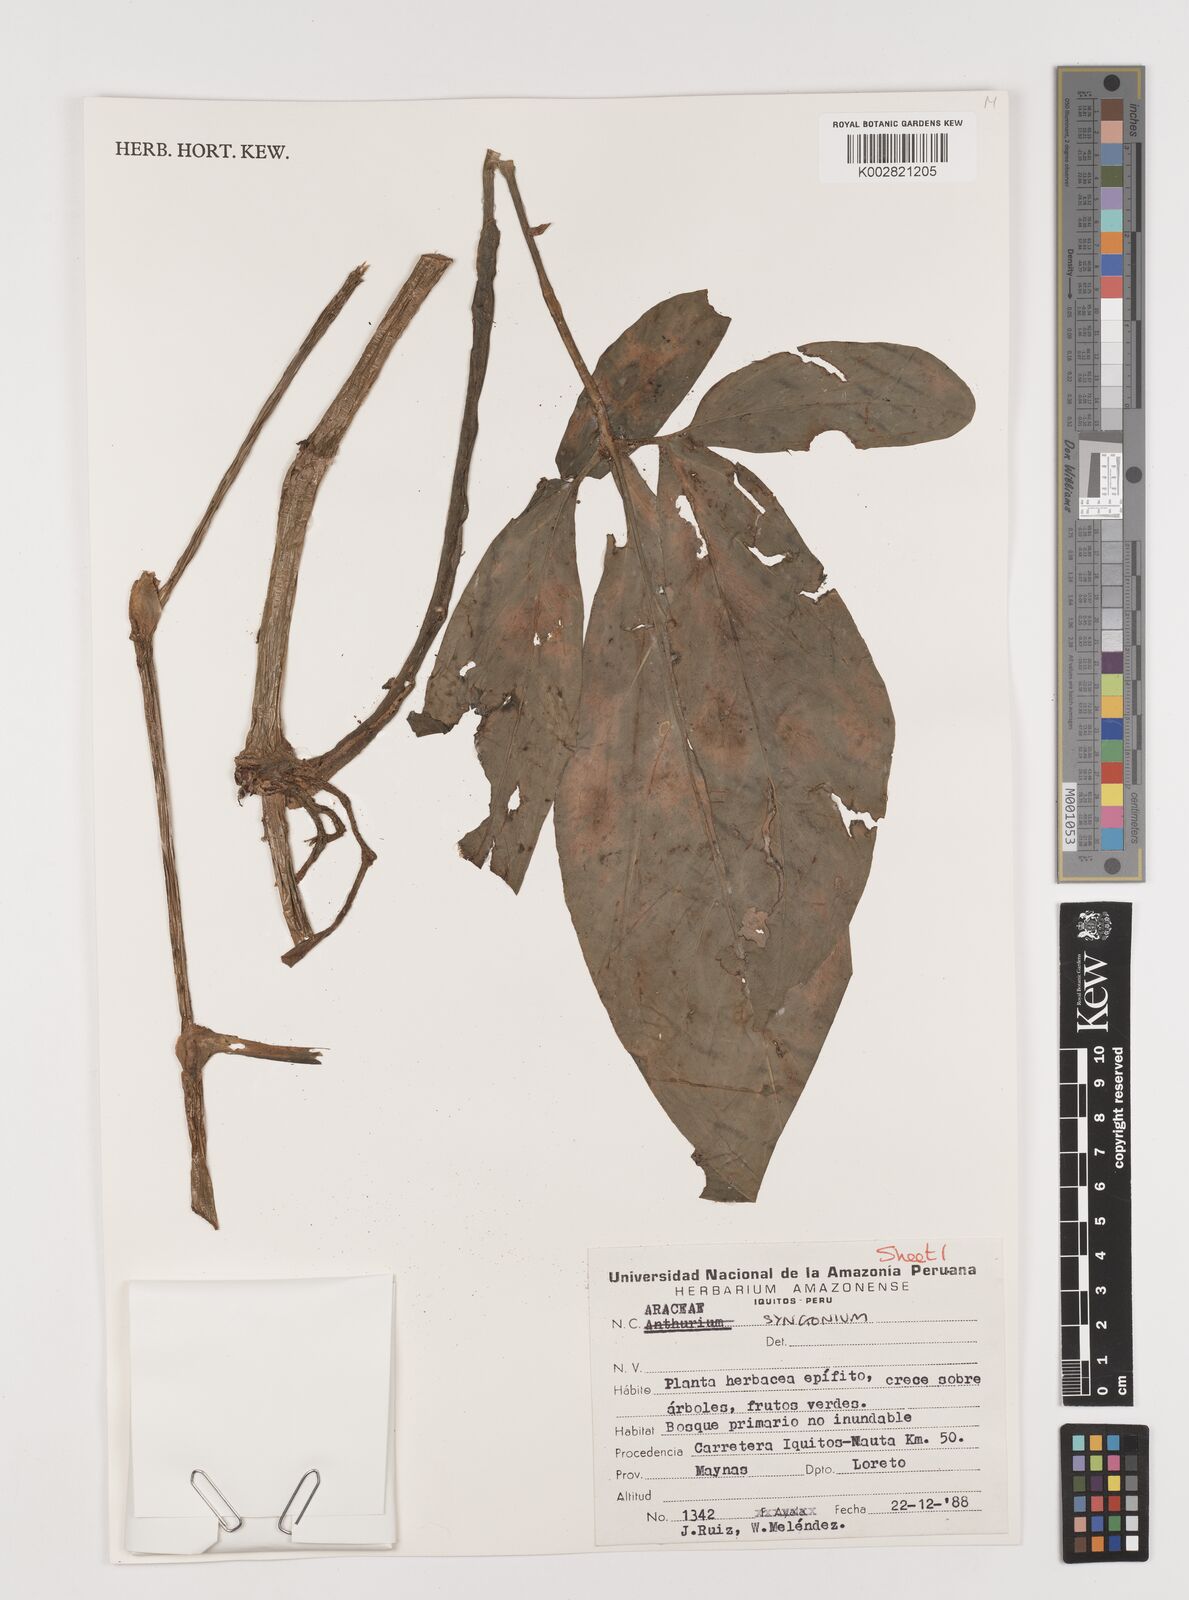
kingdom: Plantae
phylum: Tracheophyta
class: Liliopsida
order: Alismatales
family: Araceae
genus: Syngonium
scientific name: Syngonium
